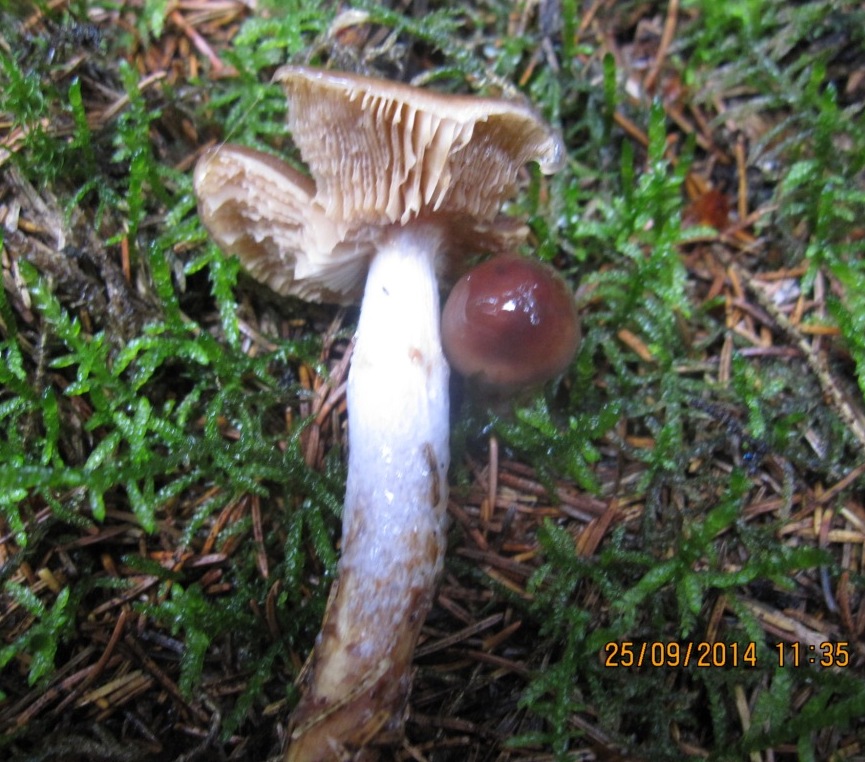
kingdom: Fungi
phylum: Basidiomycota
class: Agaricomycetes
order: Agaricales
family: Cortinariaceae
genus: Cortinarius
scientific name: Cortinarius collinitus
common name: spættet slørhat
